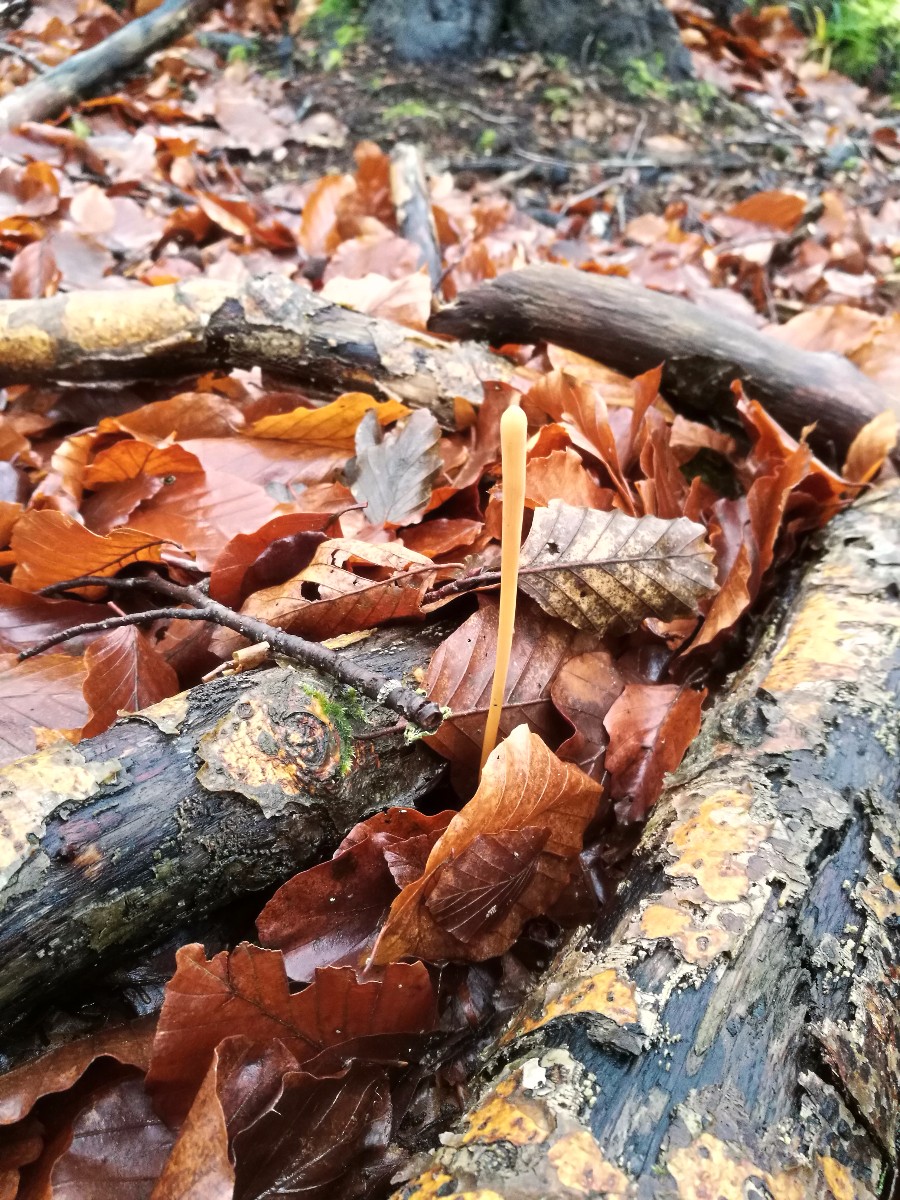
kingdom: Fungi
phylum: Basidiomycota
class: Agaricomycetes
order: Agaricales
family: Typhulaceae
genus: Typhula
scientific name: Typhula fistulosa
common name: pibet rørkølle
